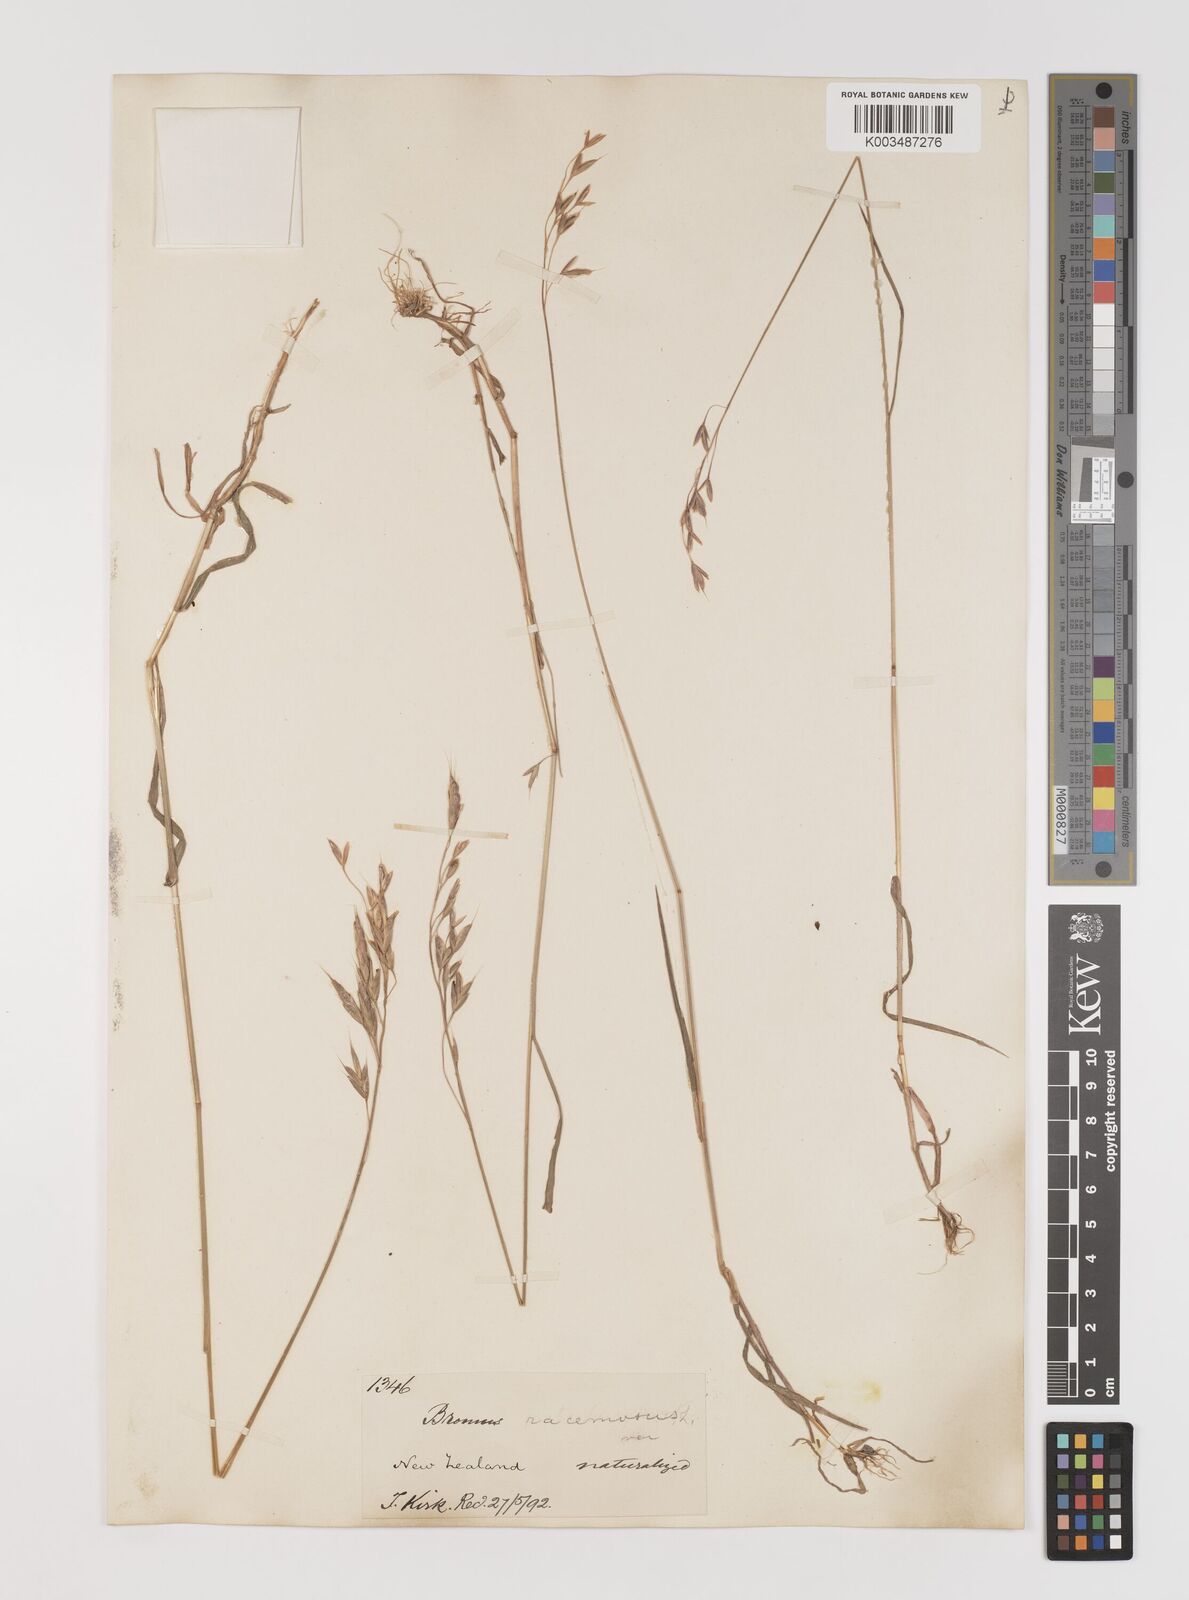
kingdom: Plantae
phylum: Tracheophyta
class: Liliopsida
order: Poales
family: Poaceae
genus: Bromus
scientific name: Bromus secalinus
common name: Rye brome
